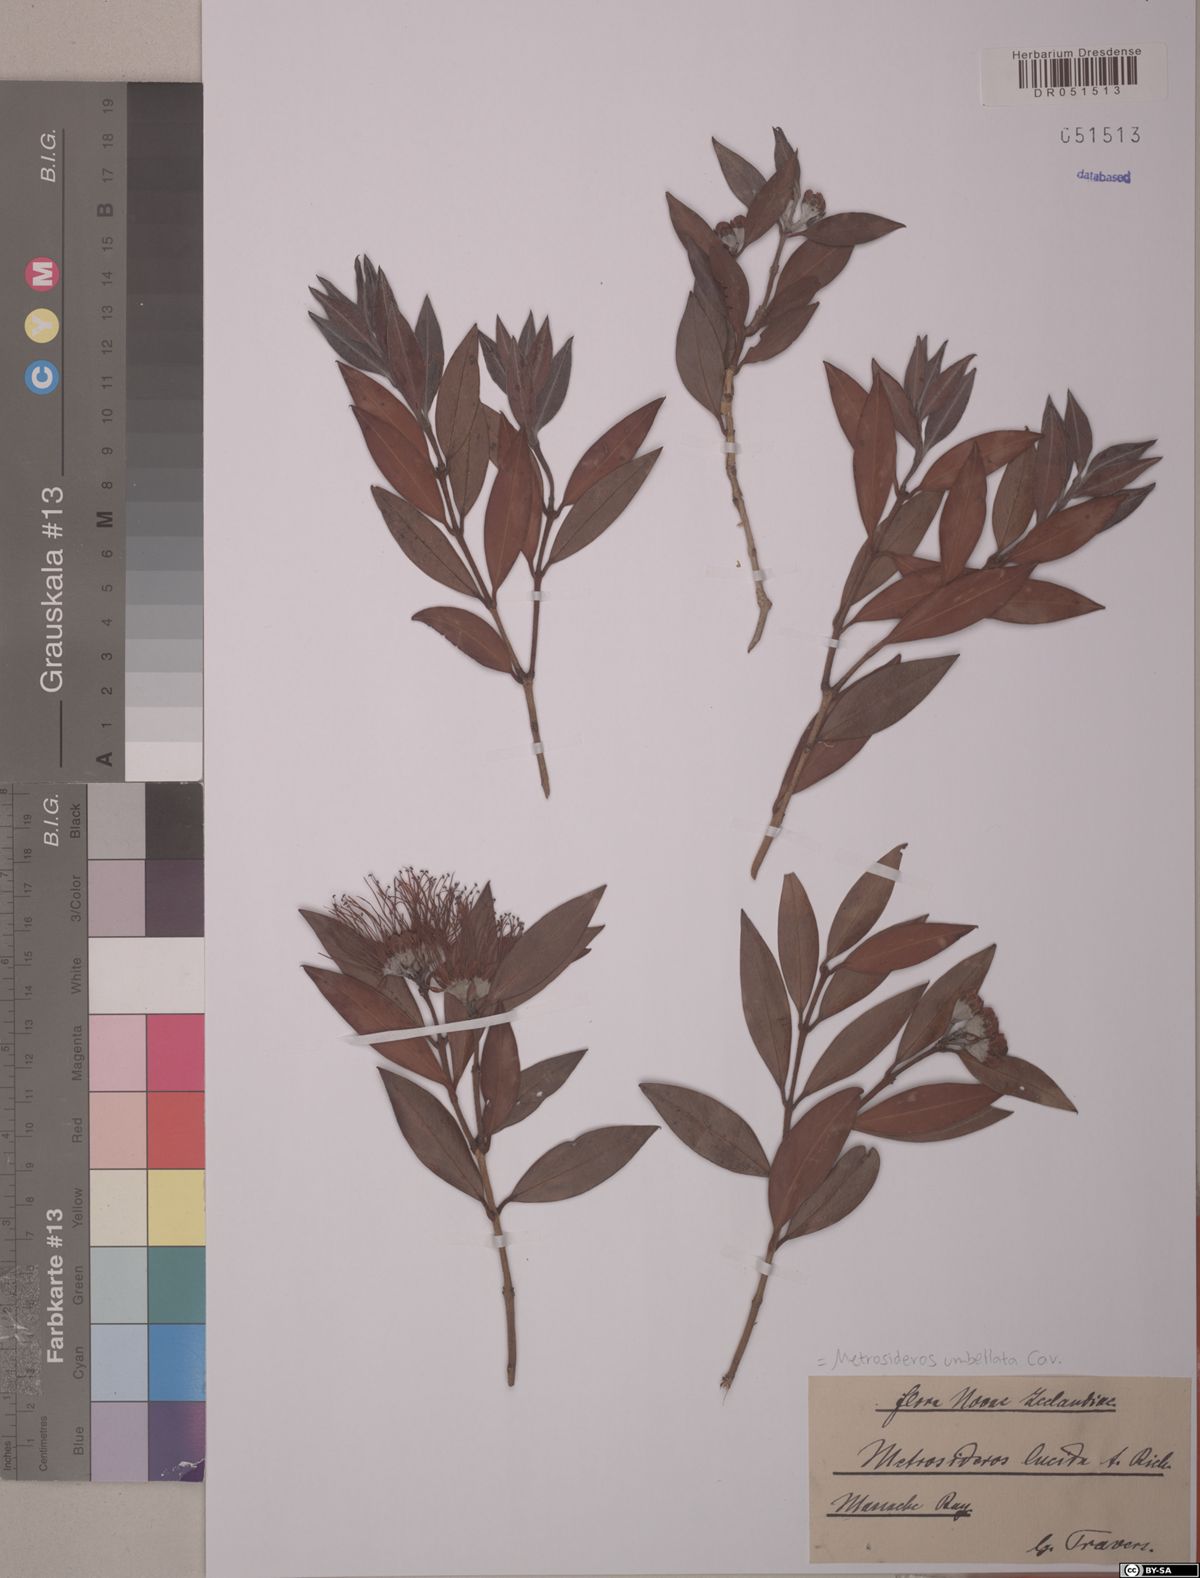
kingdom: Plantae
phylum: Tracheophyta
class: Magnoliopsida
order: Myrtales
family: Myrtaceae
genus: Metrosideros
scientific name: Metrosideros umbellata
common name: Southern rata
